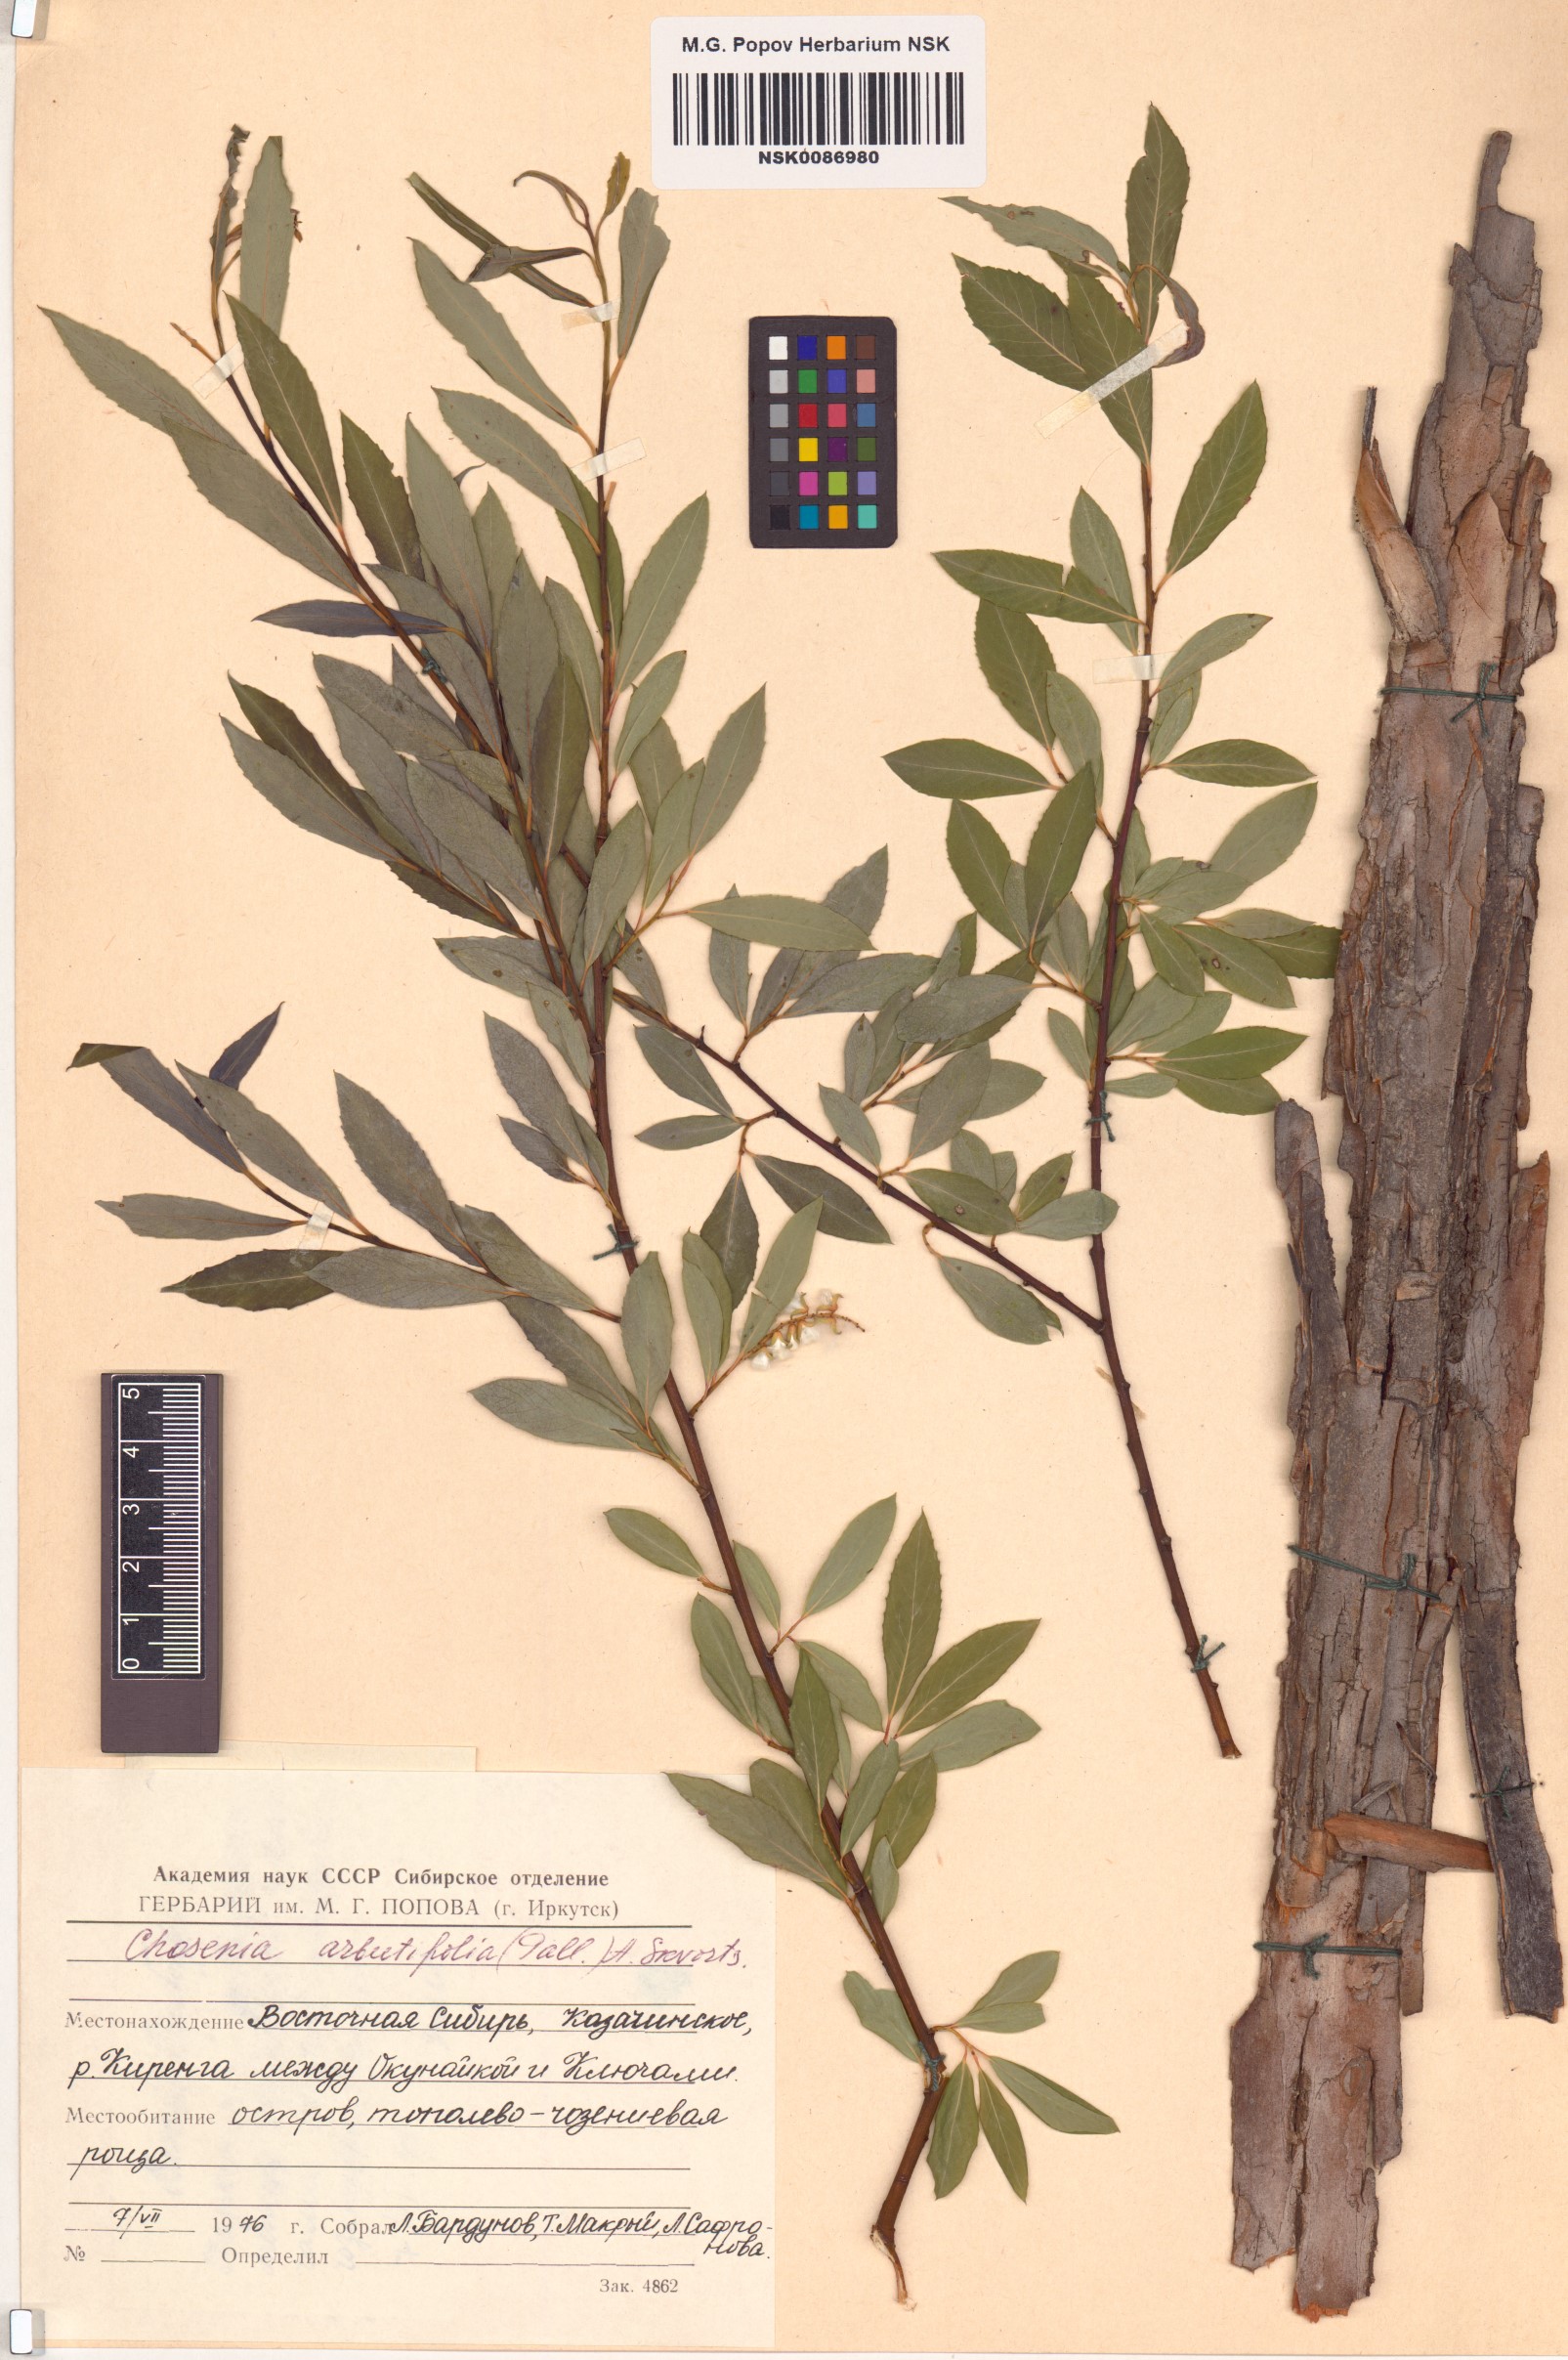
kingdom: Plantae
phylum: Tracheophyta
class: Magnoliopsida
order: Malpighiales
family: Salicaceae
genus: Chosenia
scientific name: Chosenia arbutifolia
